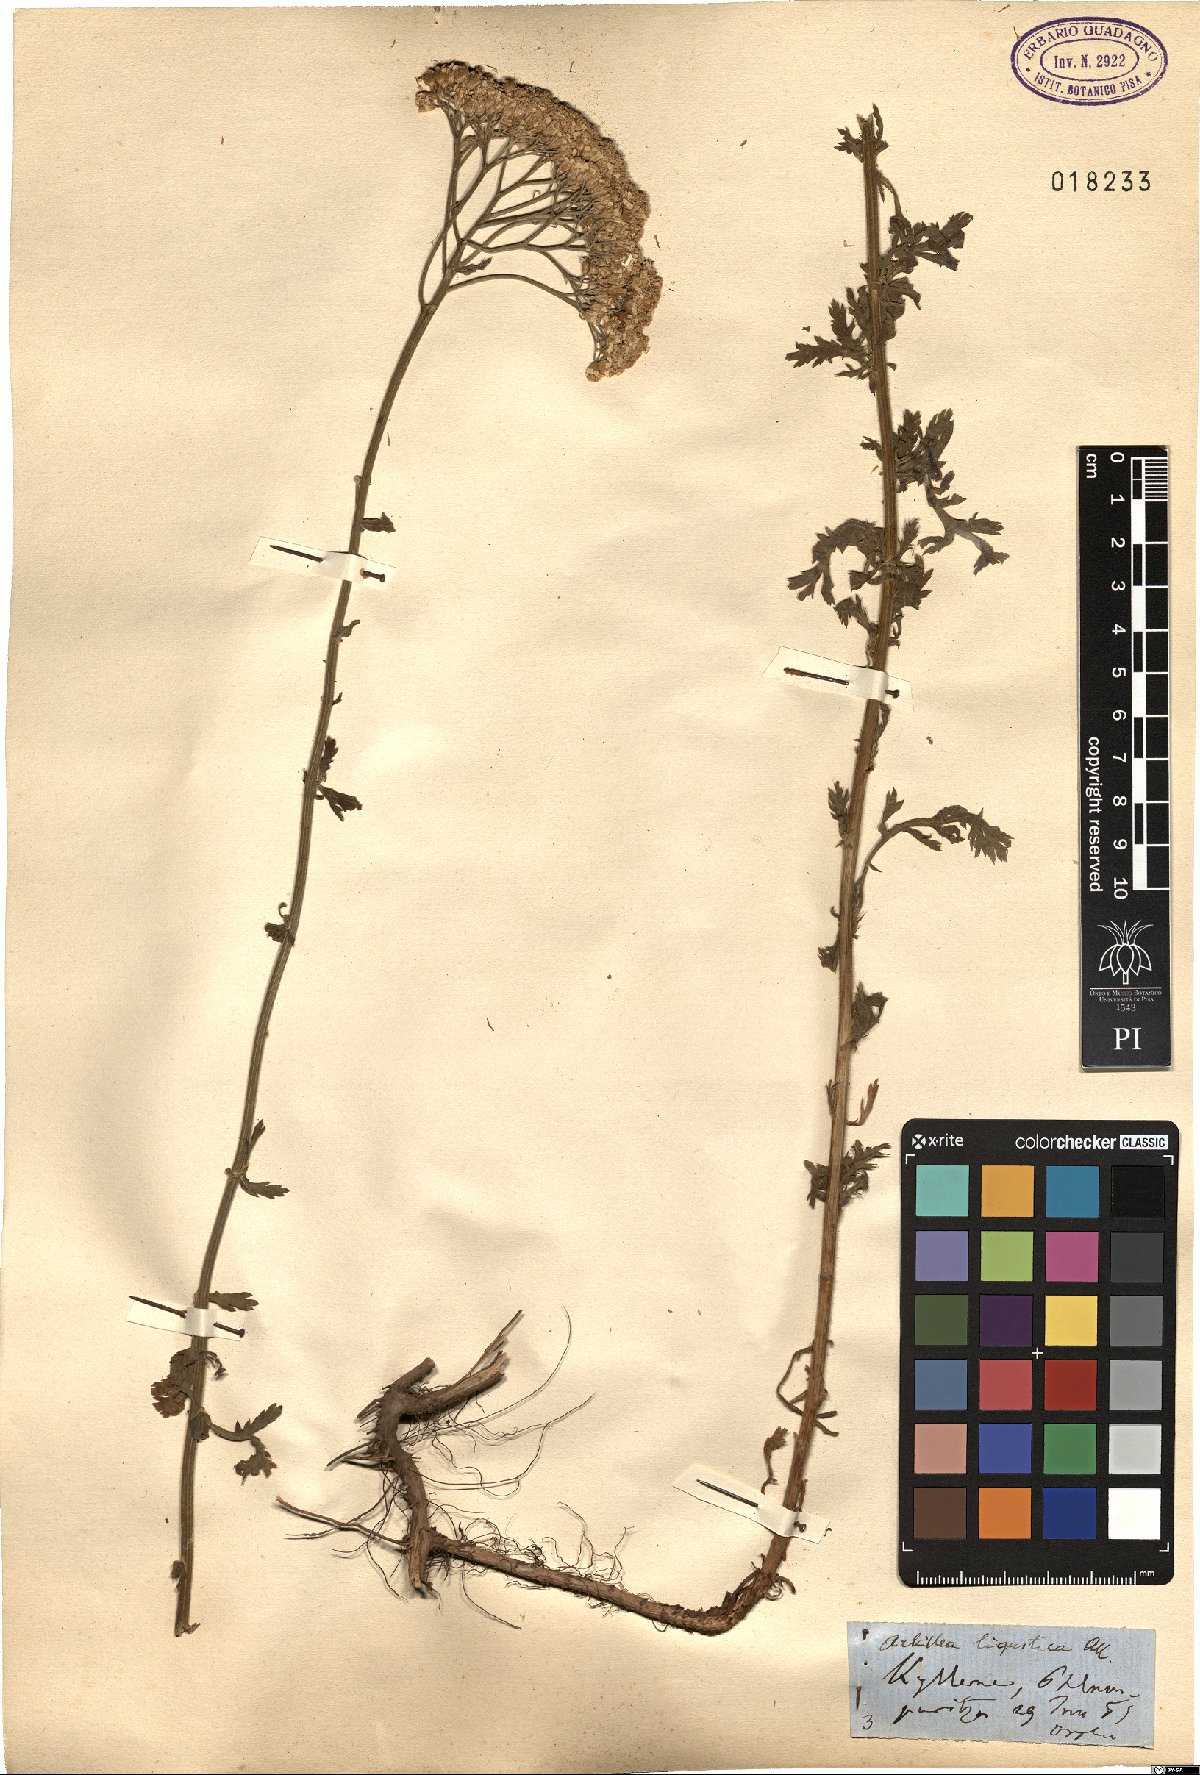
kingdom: Plantae
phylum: Tracheophyta
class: Magnoliopsida
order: Asterales
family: Asteraceae
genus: Achillea
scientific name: Achillea ligustica
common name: Southern yarrow
